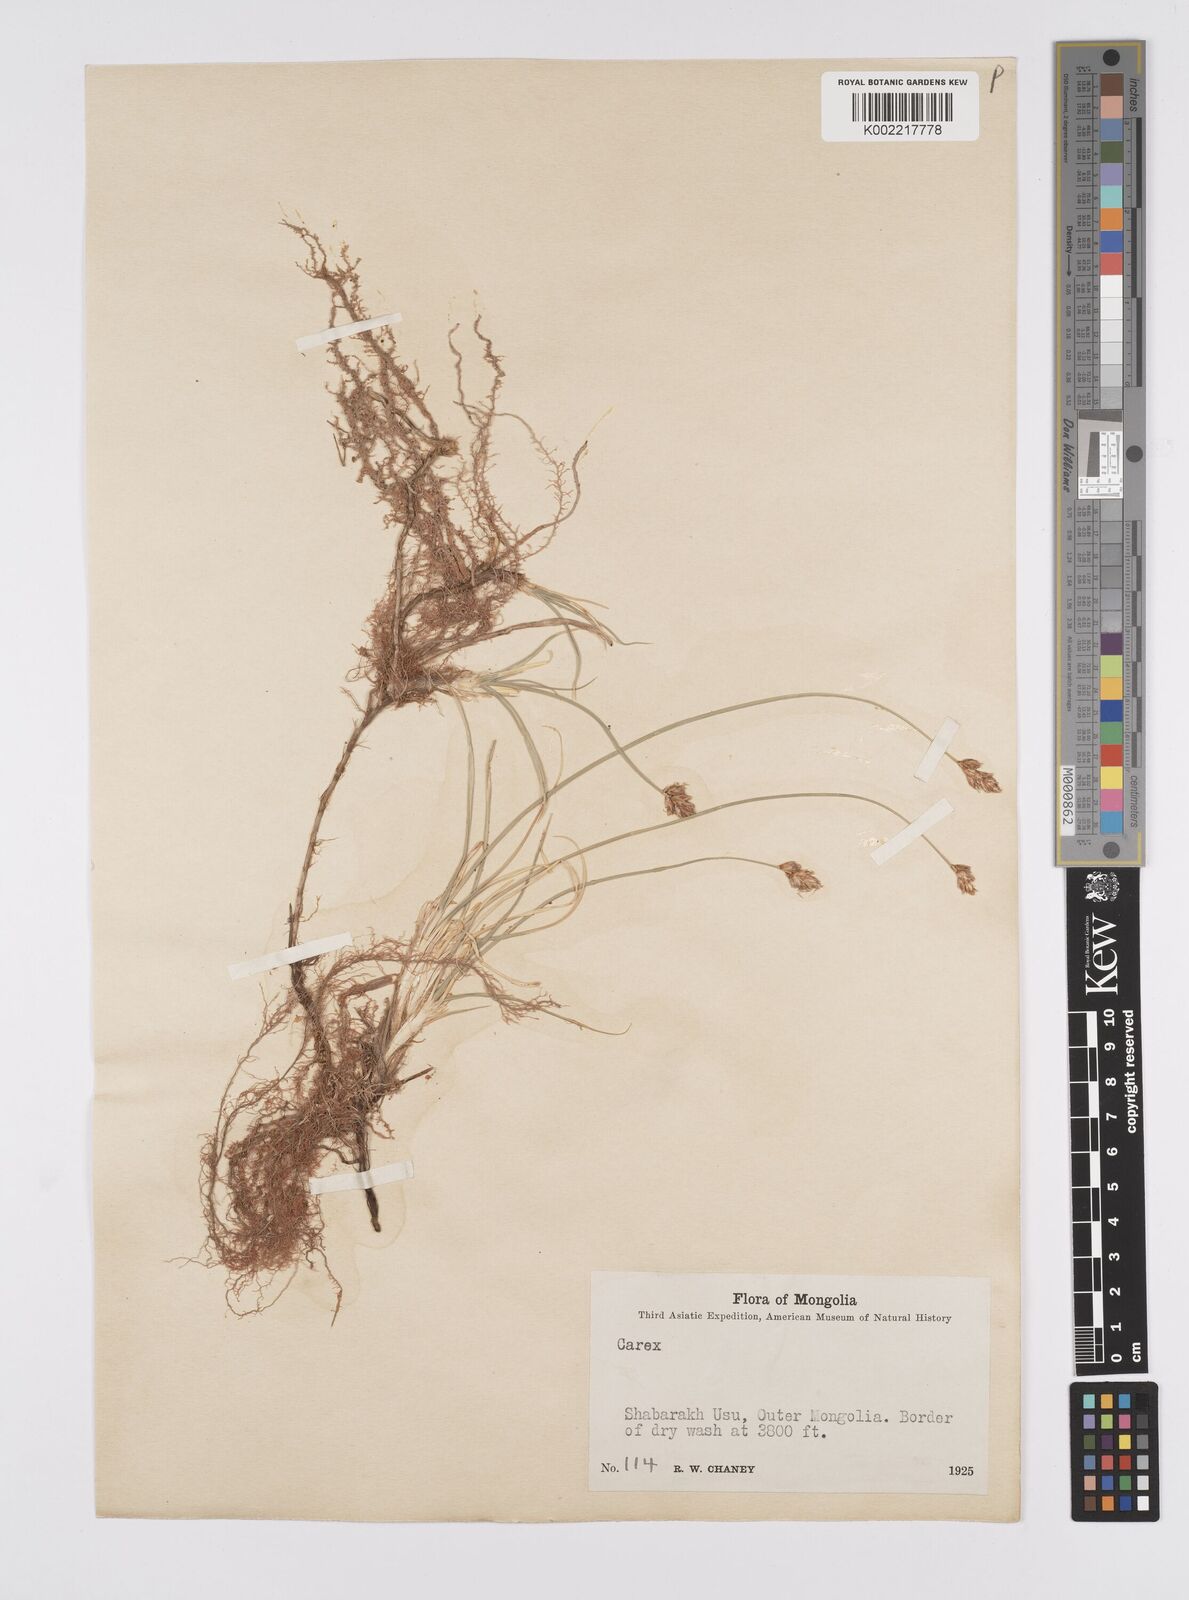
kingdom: Plantae
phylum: Tracheophyta
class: Liliopsida
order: Poales
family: Cyperaceae
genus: Carex
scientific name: Carex stenophylla
